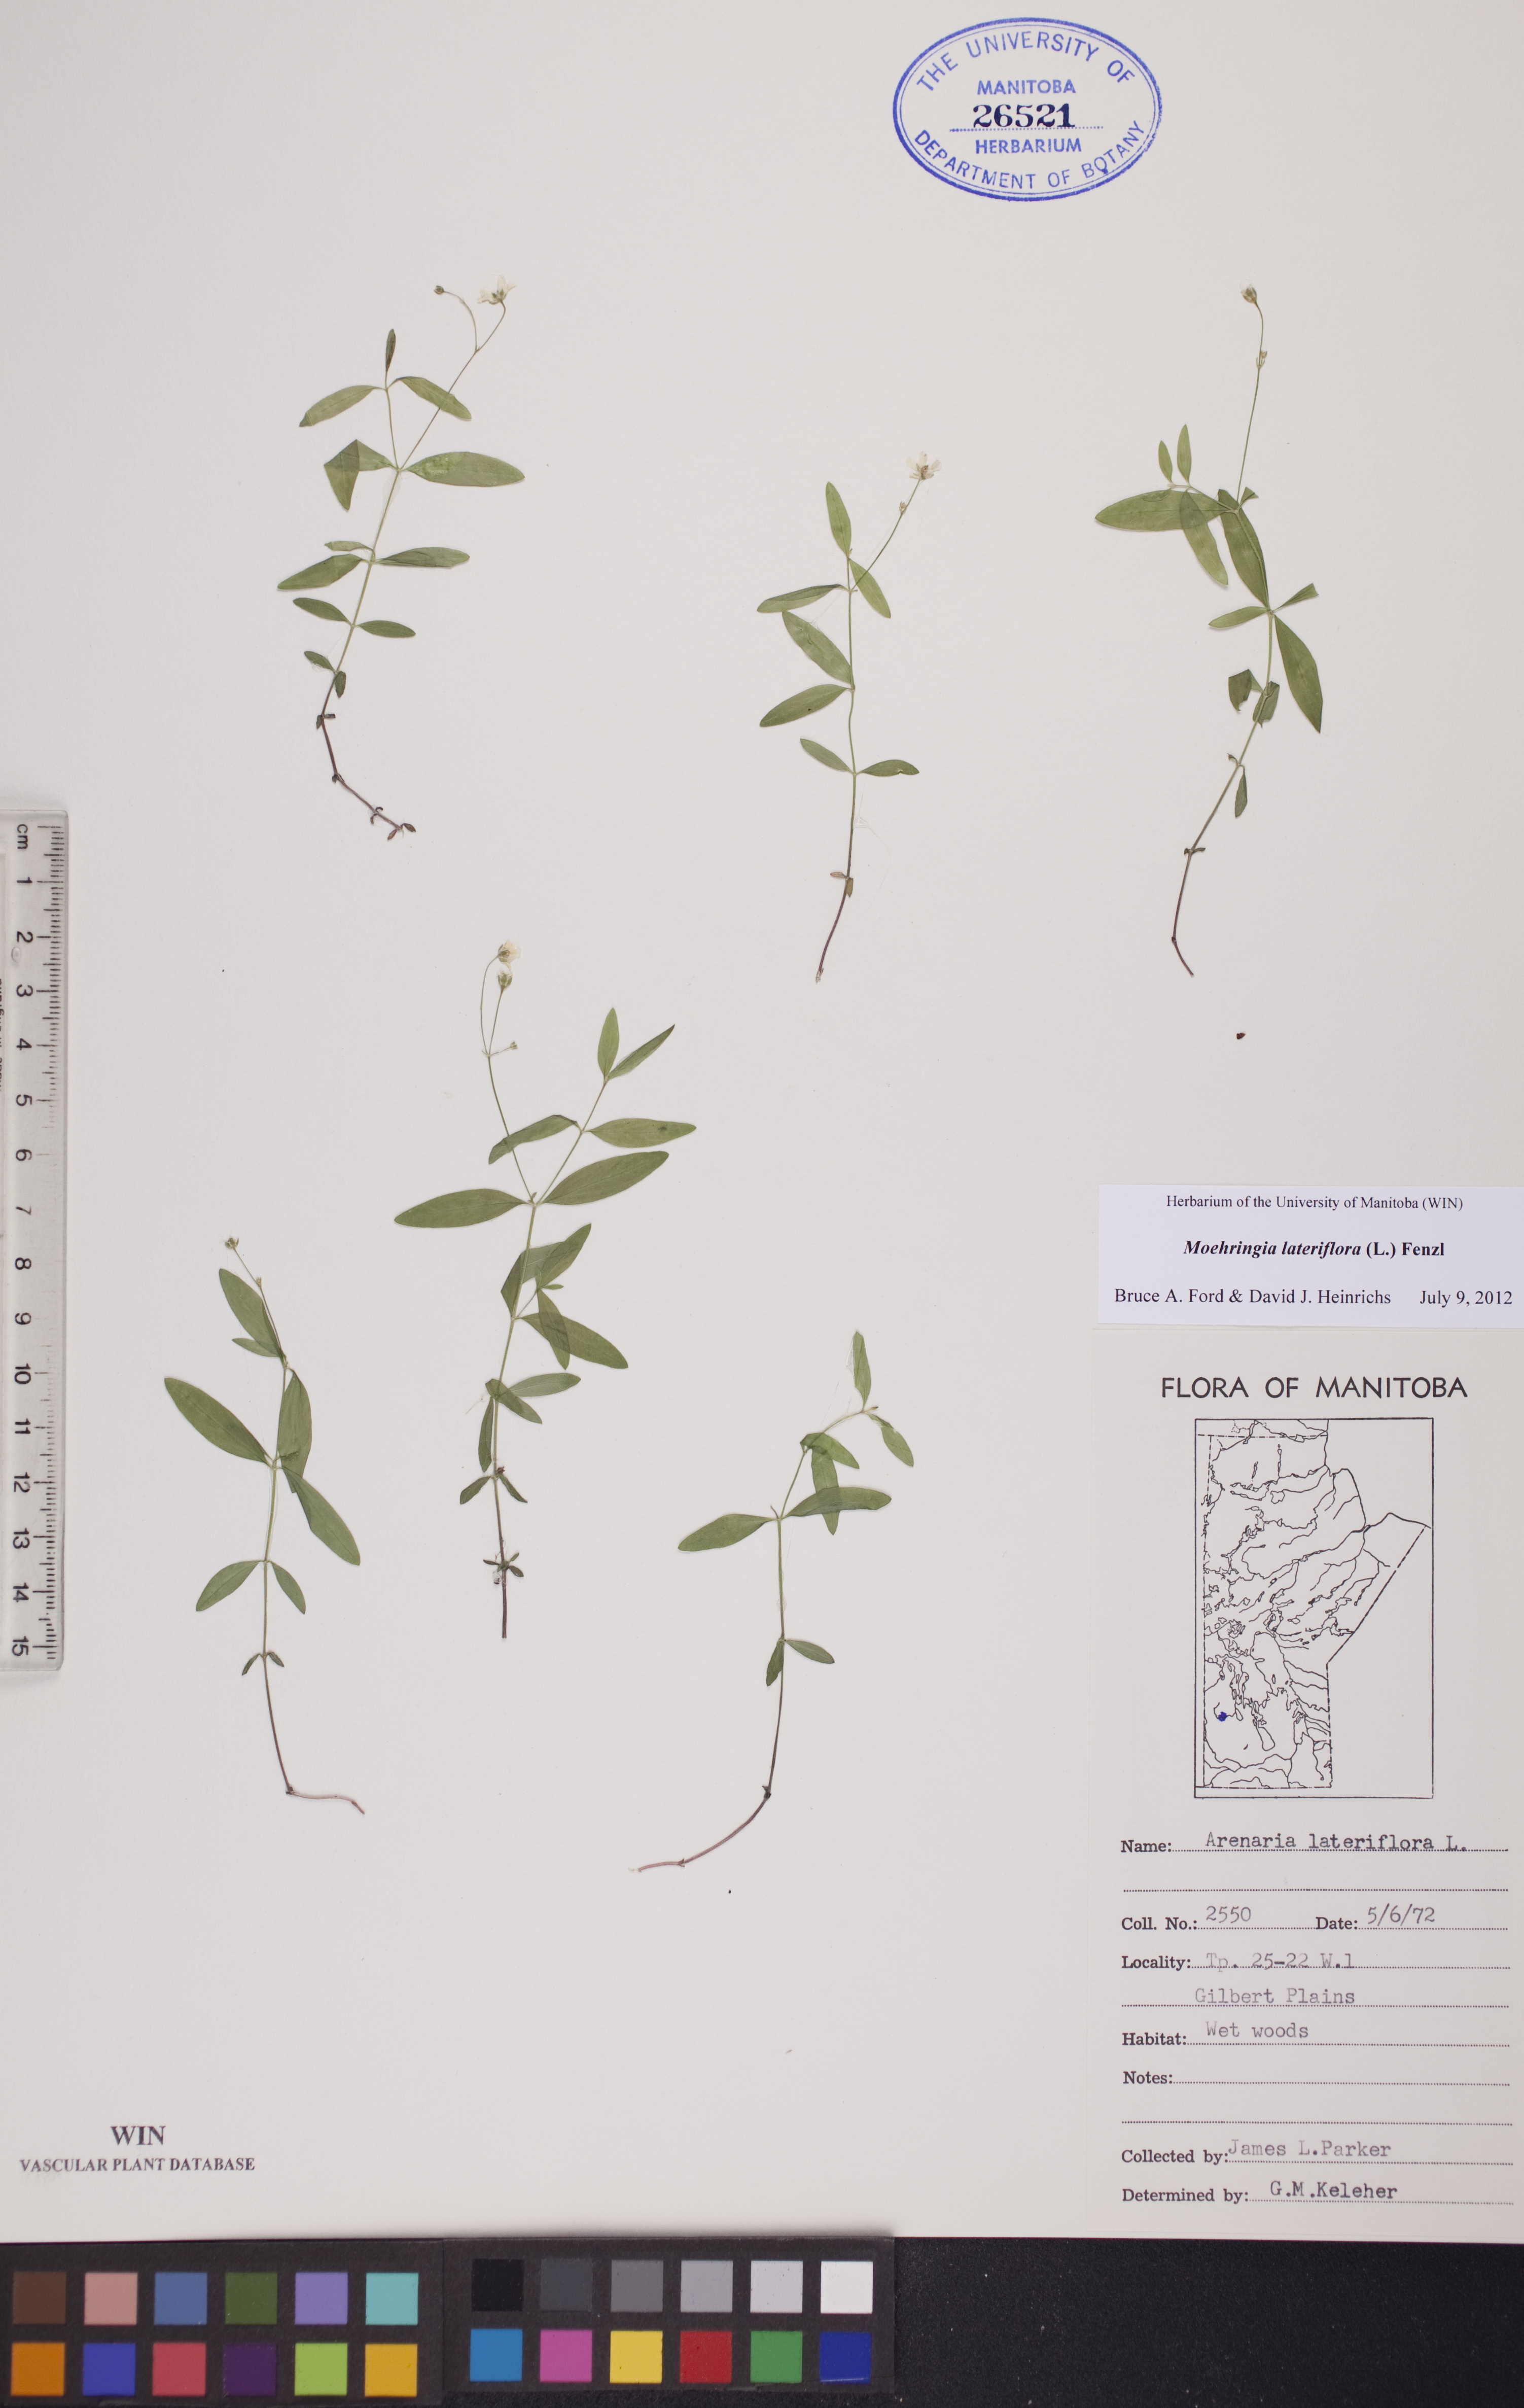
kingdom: Plantae
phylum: Tracheophyta
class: Magnoliopsida
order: Caryophyllales
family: Caryophyllaceae
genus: Moehringia
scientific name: Moehringia lateriflora
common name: Blunt-leaved sandwort
